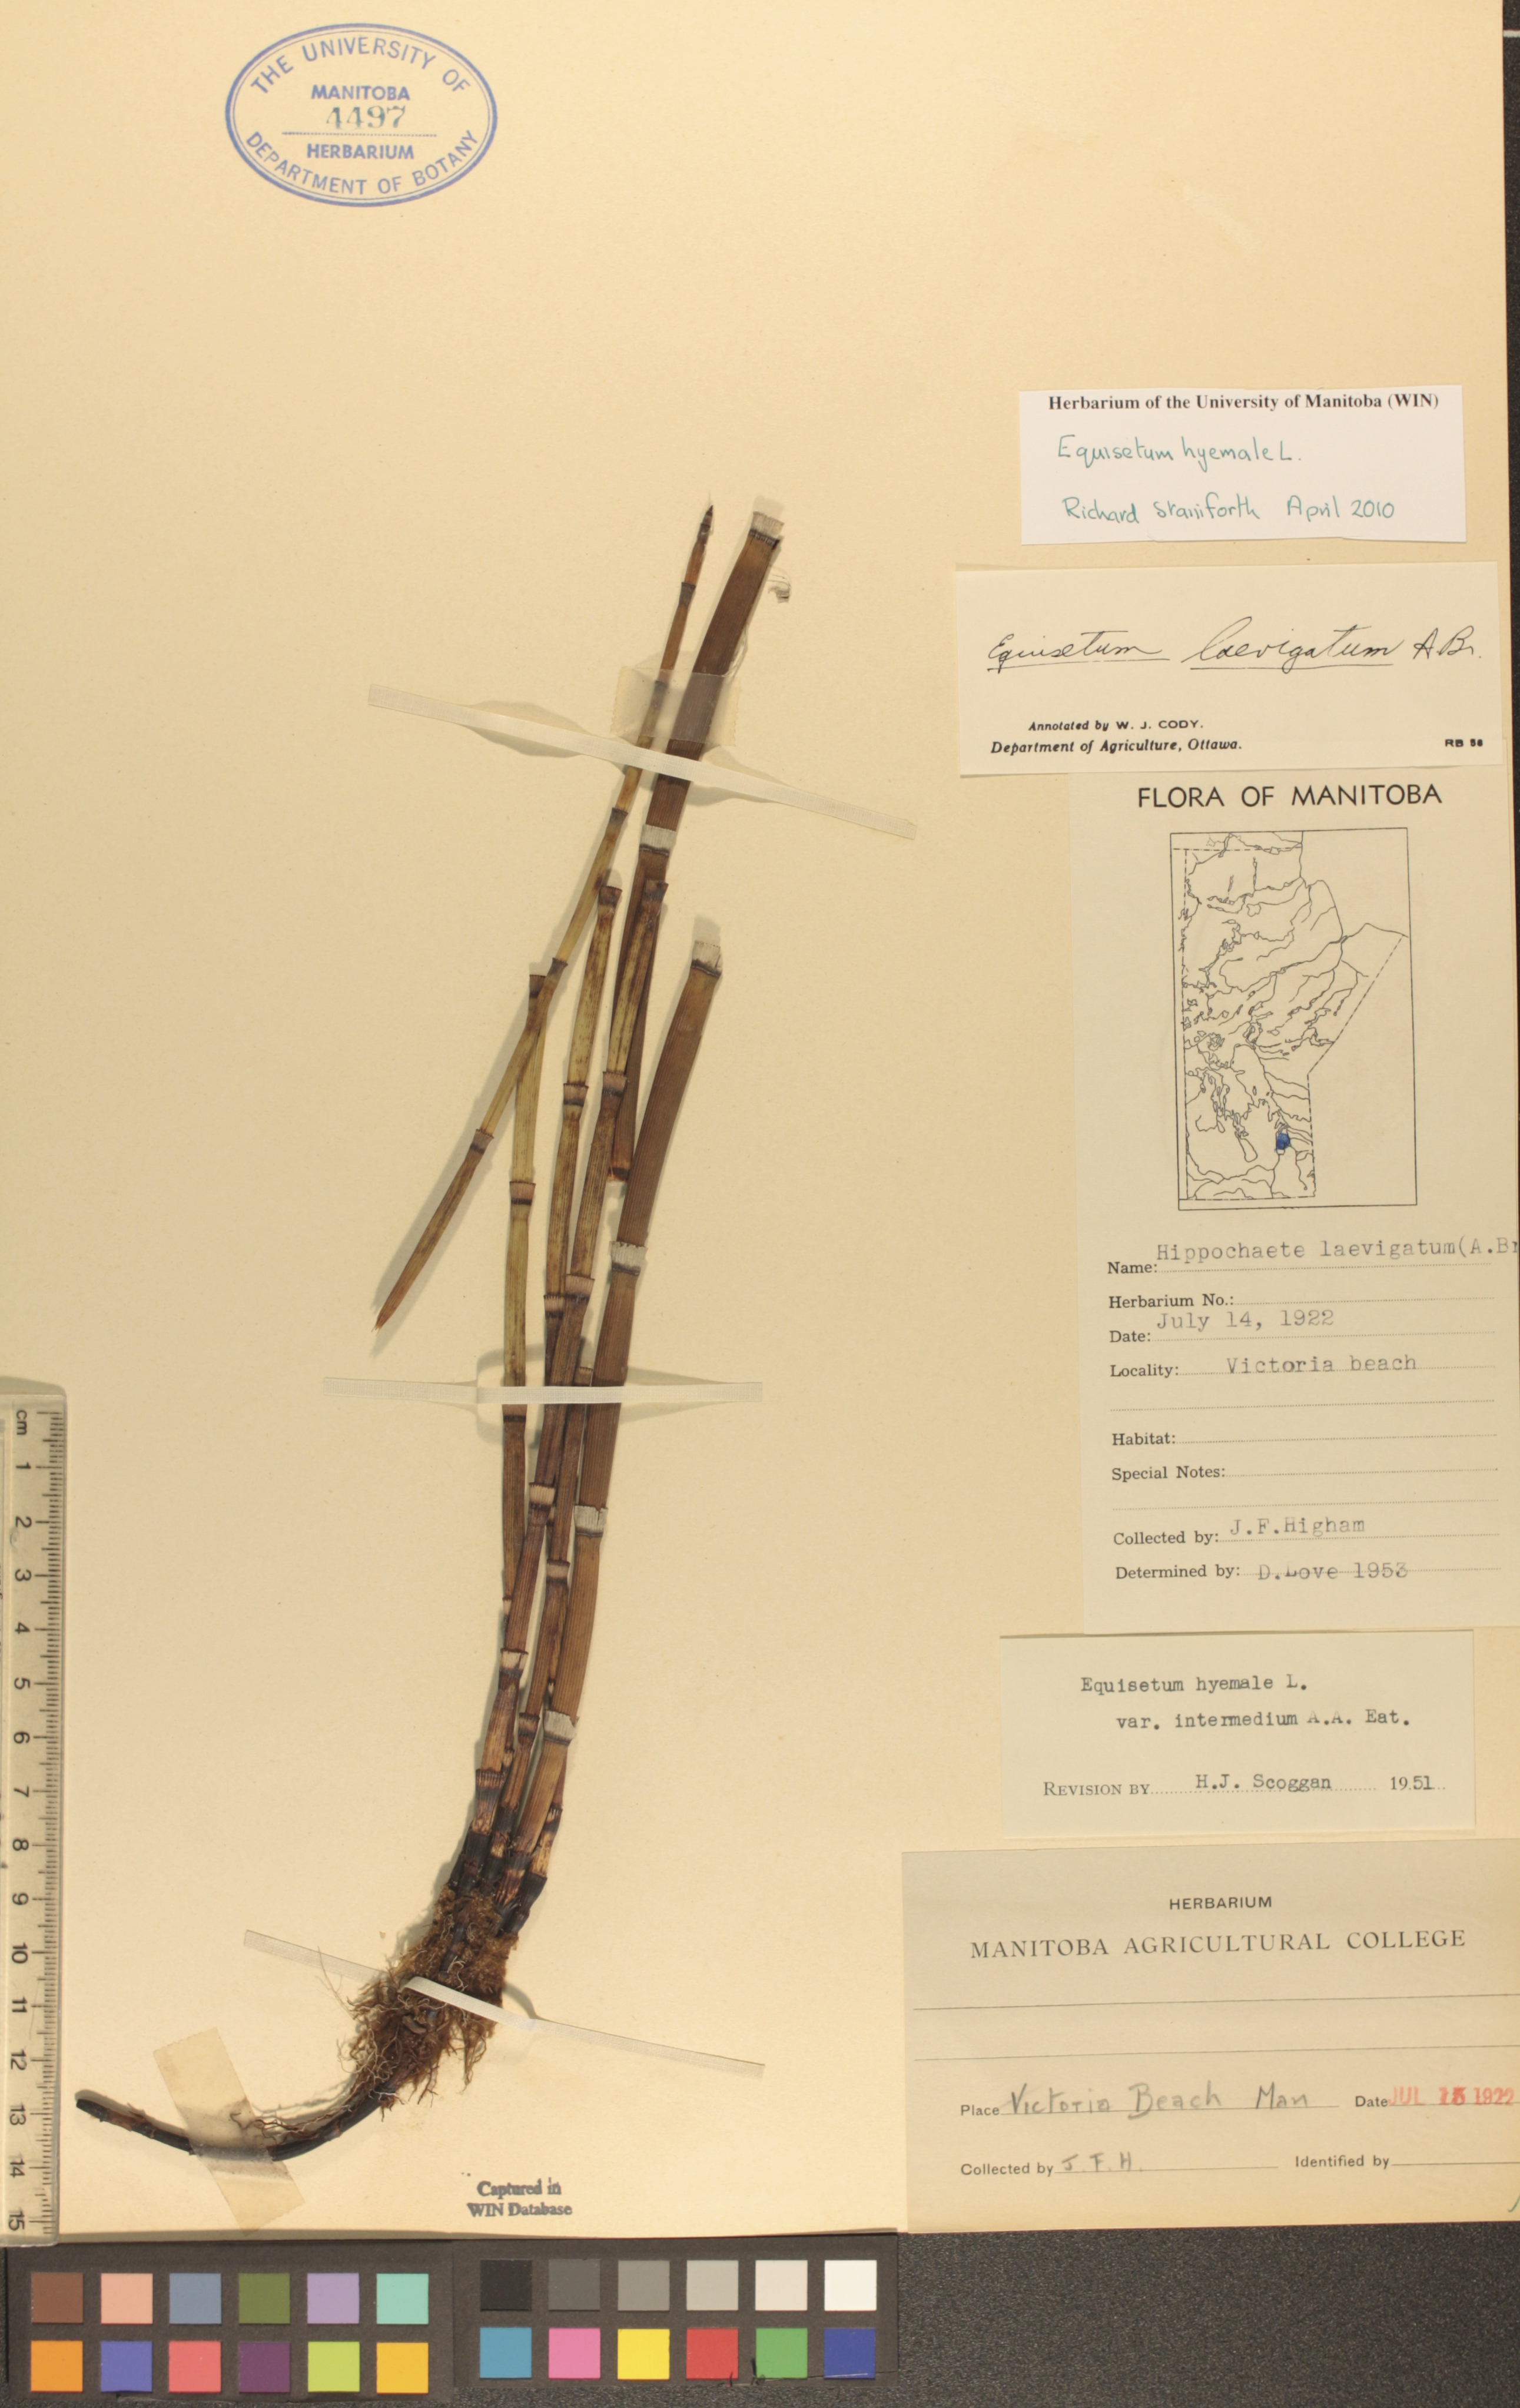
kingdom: Plantae
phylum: Tracheophyta
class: Polypodiopsida
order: Equisetales
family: Equisetaceae
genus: Equisetum
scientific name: Equisetum hyemale
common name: Rough horsetail
